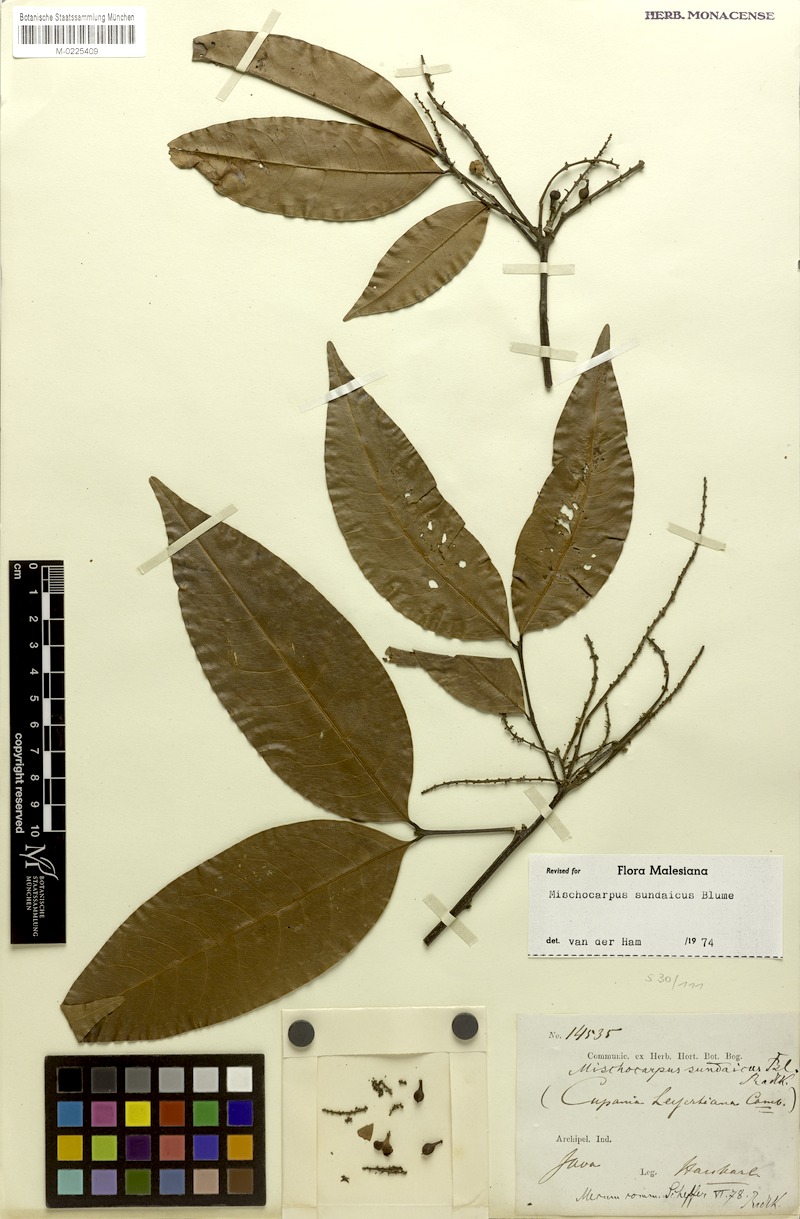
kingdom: Plantae
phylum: Tracheophyta
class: Magnoliopsida
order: Sapindales
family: Sapindaceae
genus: Mischocarpus
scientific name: Mischocarpus sundaicus
